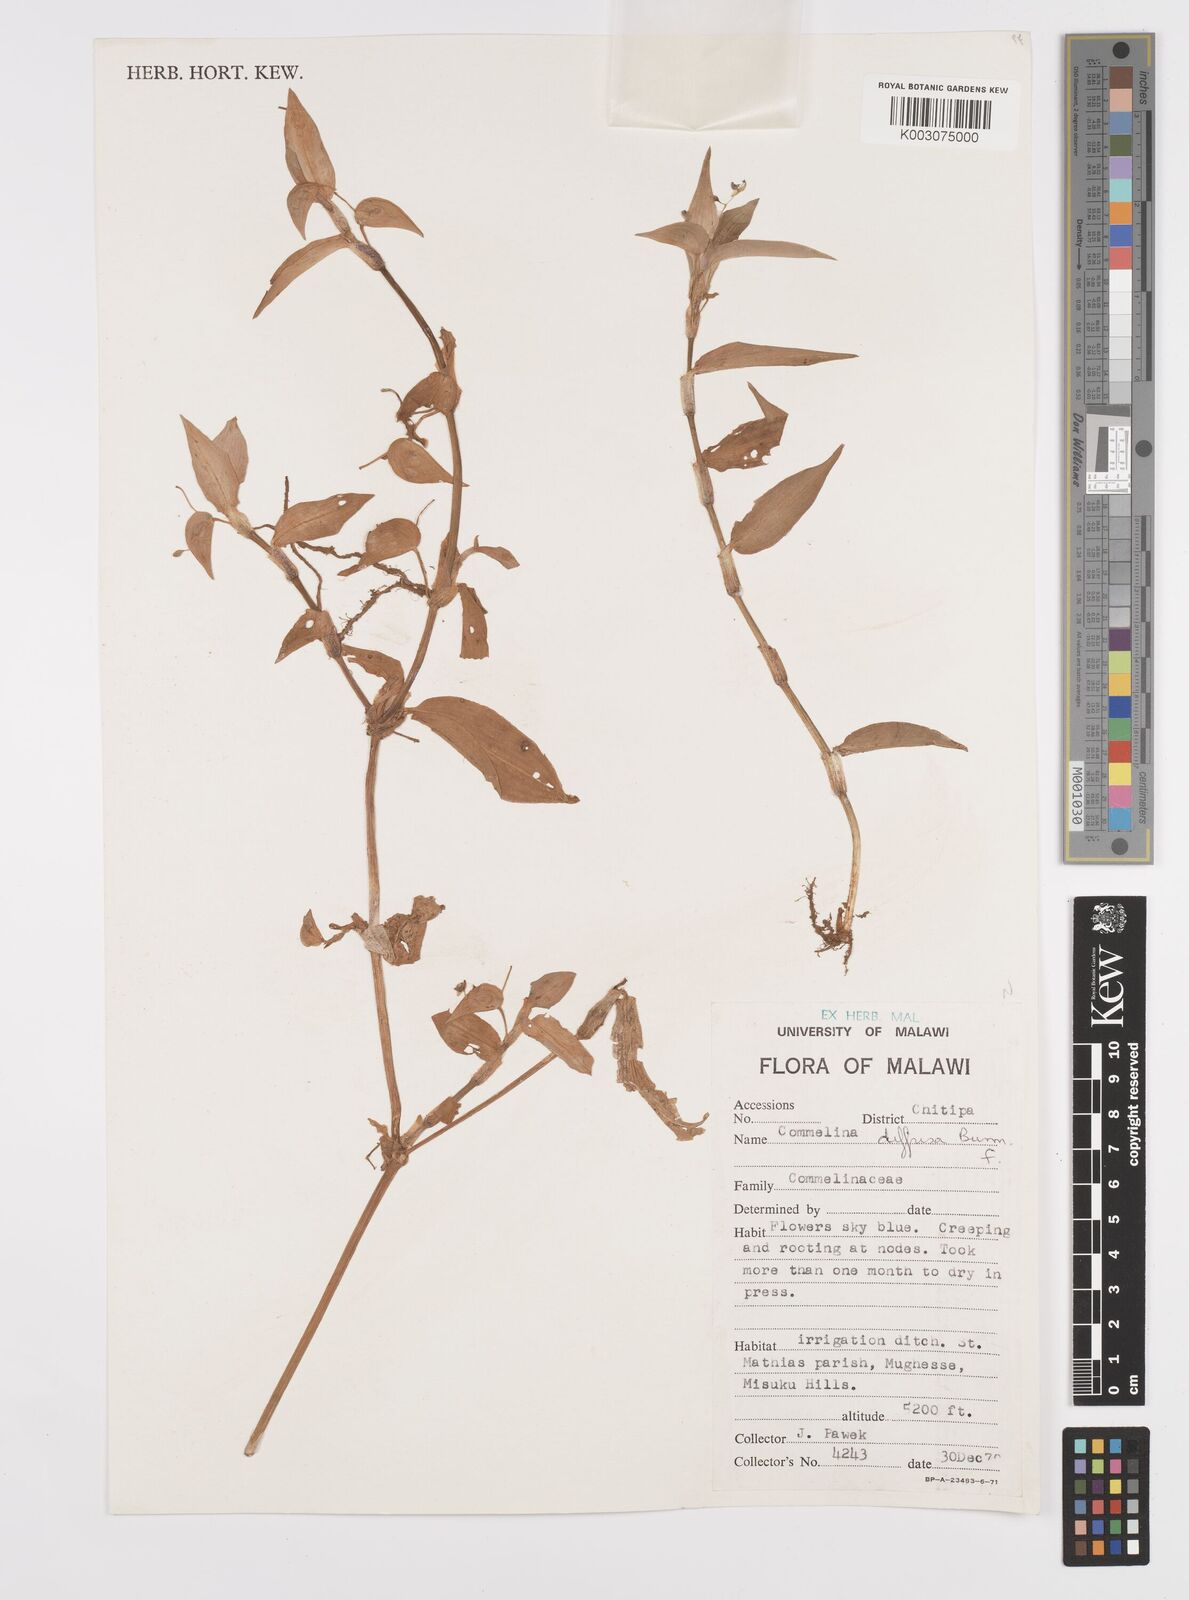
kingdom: Plantae
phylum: Tracheophyta
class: Liliopsida
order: Commelinales
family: Commelinaceae
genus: Commelina
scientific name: Commelina diffusa
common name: Climbing dayflower
